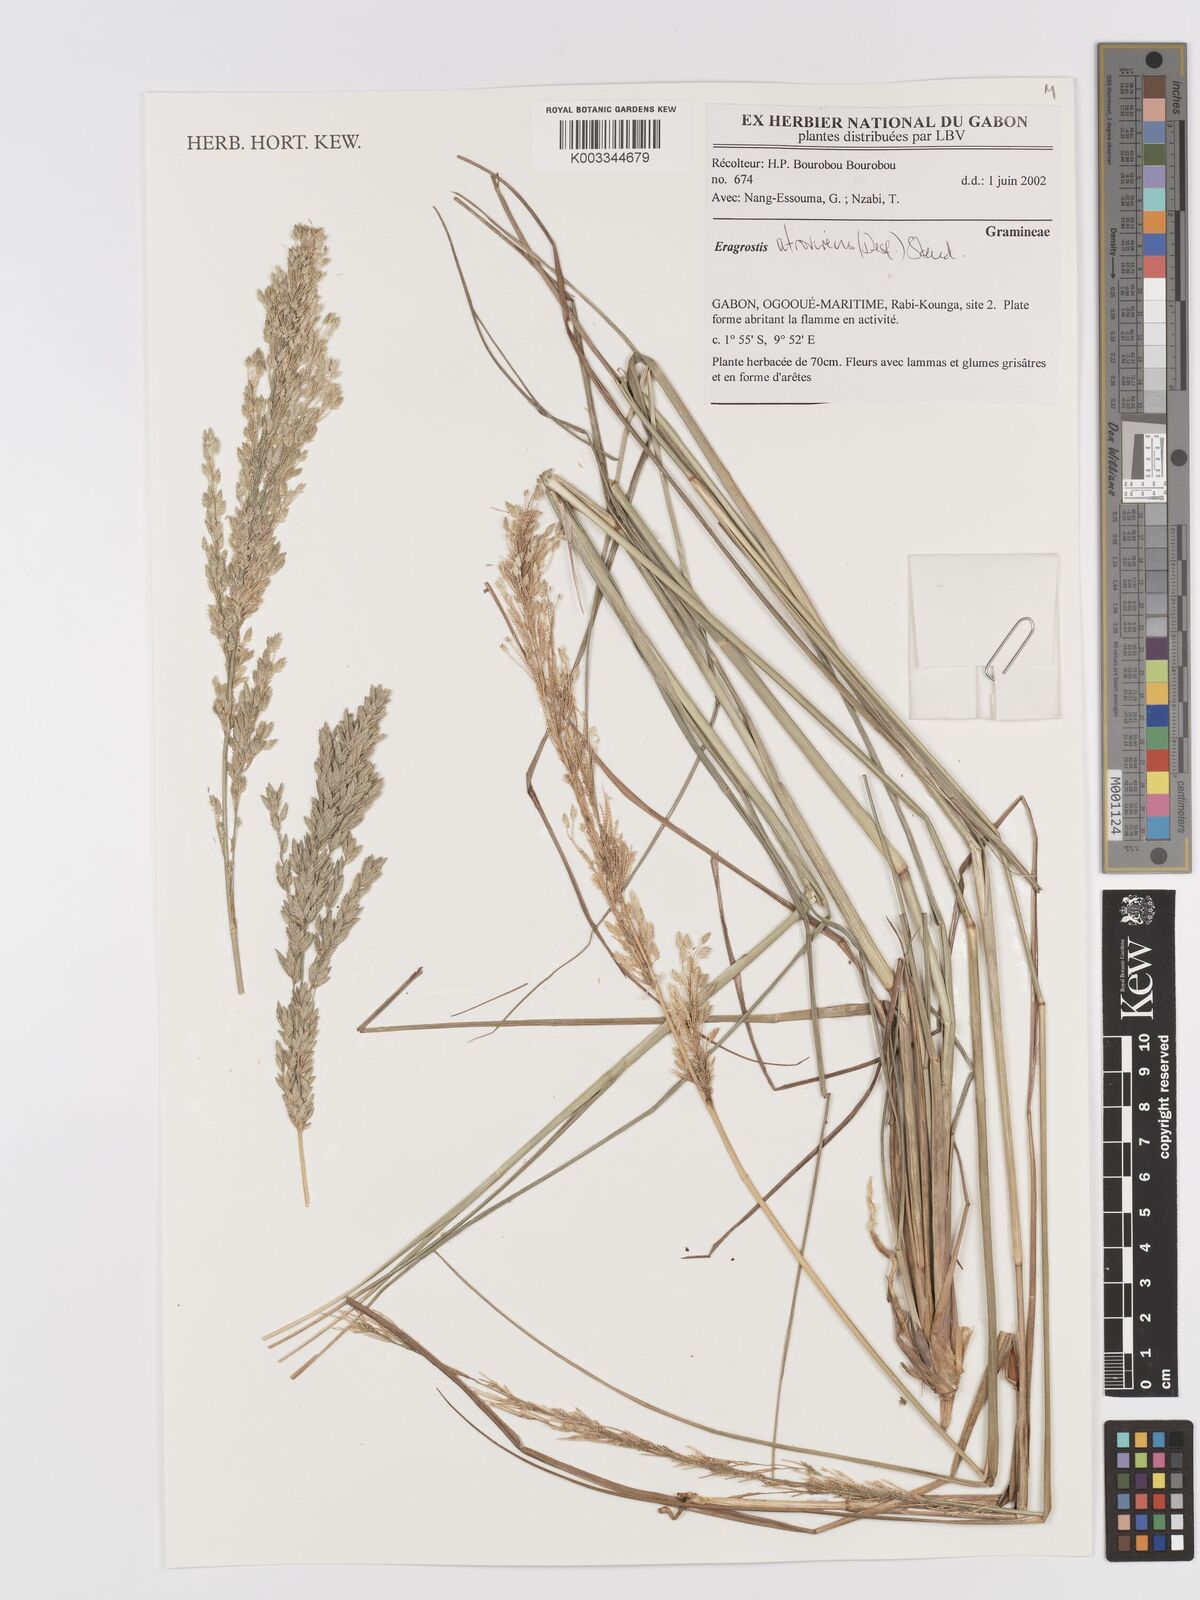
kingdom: Plantae
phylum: Tracheophyta
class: Liliopsida
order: Poales
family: Poaceae
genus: Eragrostis
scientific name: Eragrostis atrovirens
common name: Thalia lovegrass
